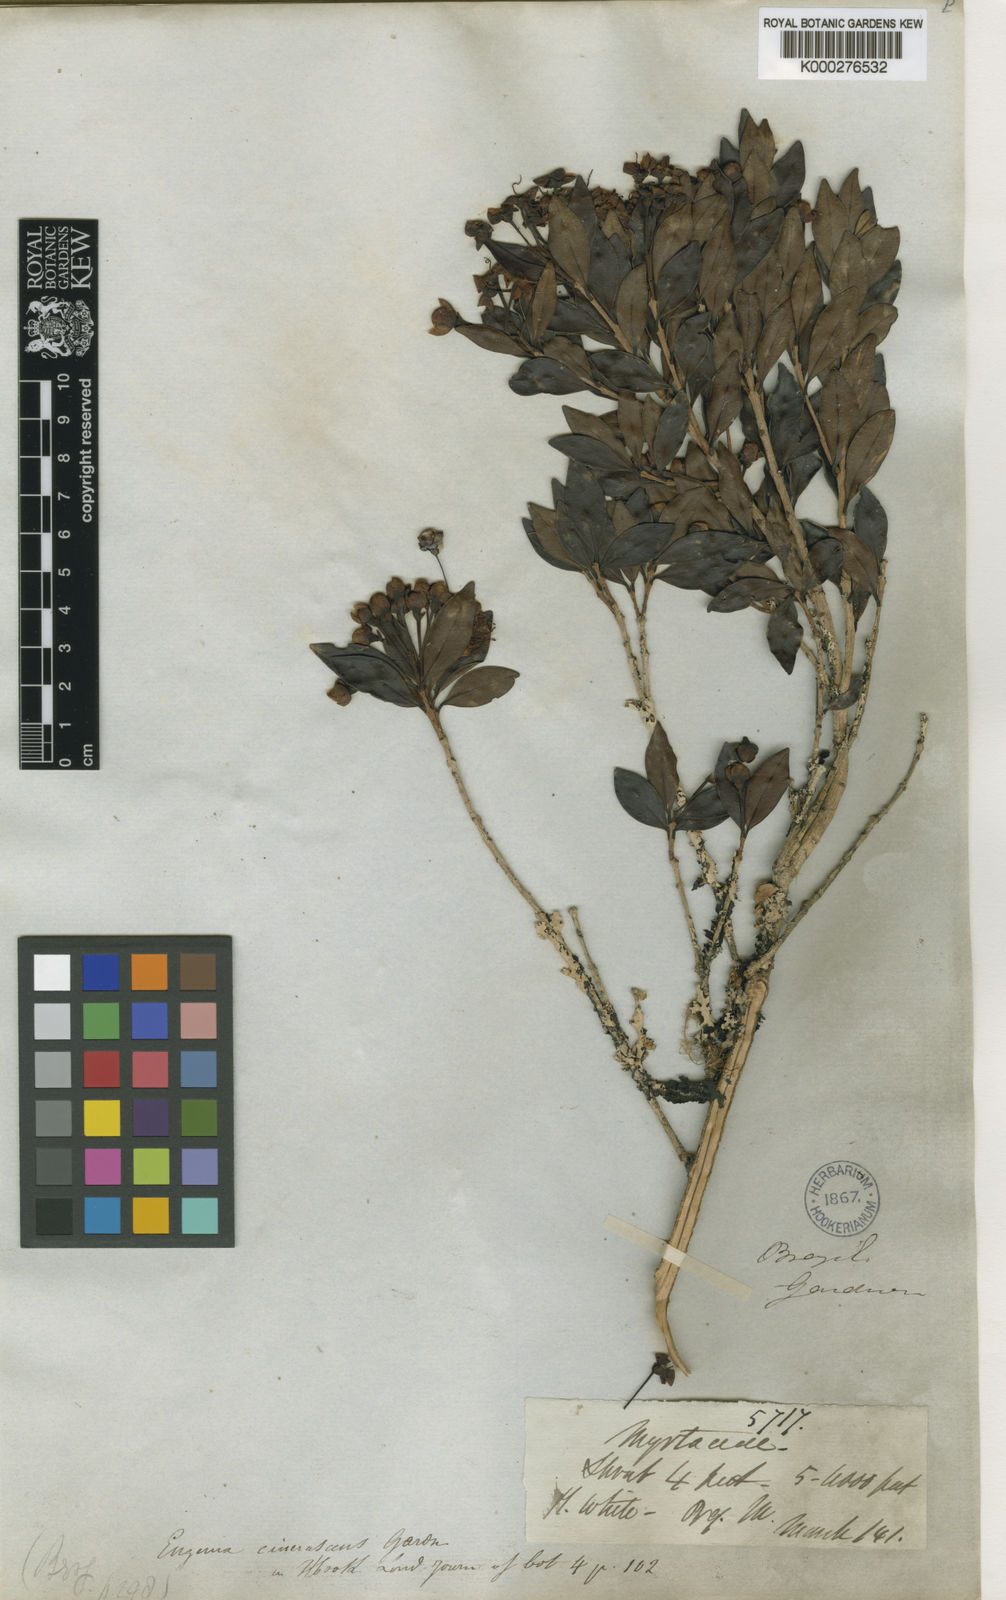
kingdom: Plantae
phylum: Tracheophyta
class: Magnoliopsida
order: Myrtales
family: Myrtaceae
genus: Eugenia
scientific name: Eugenia cinerascens
